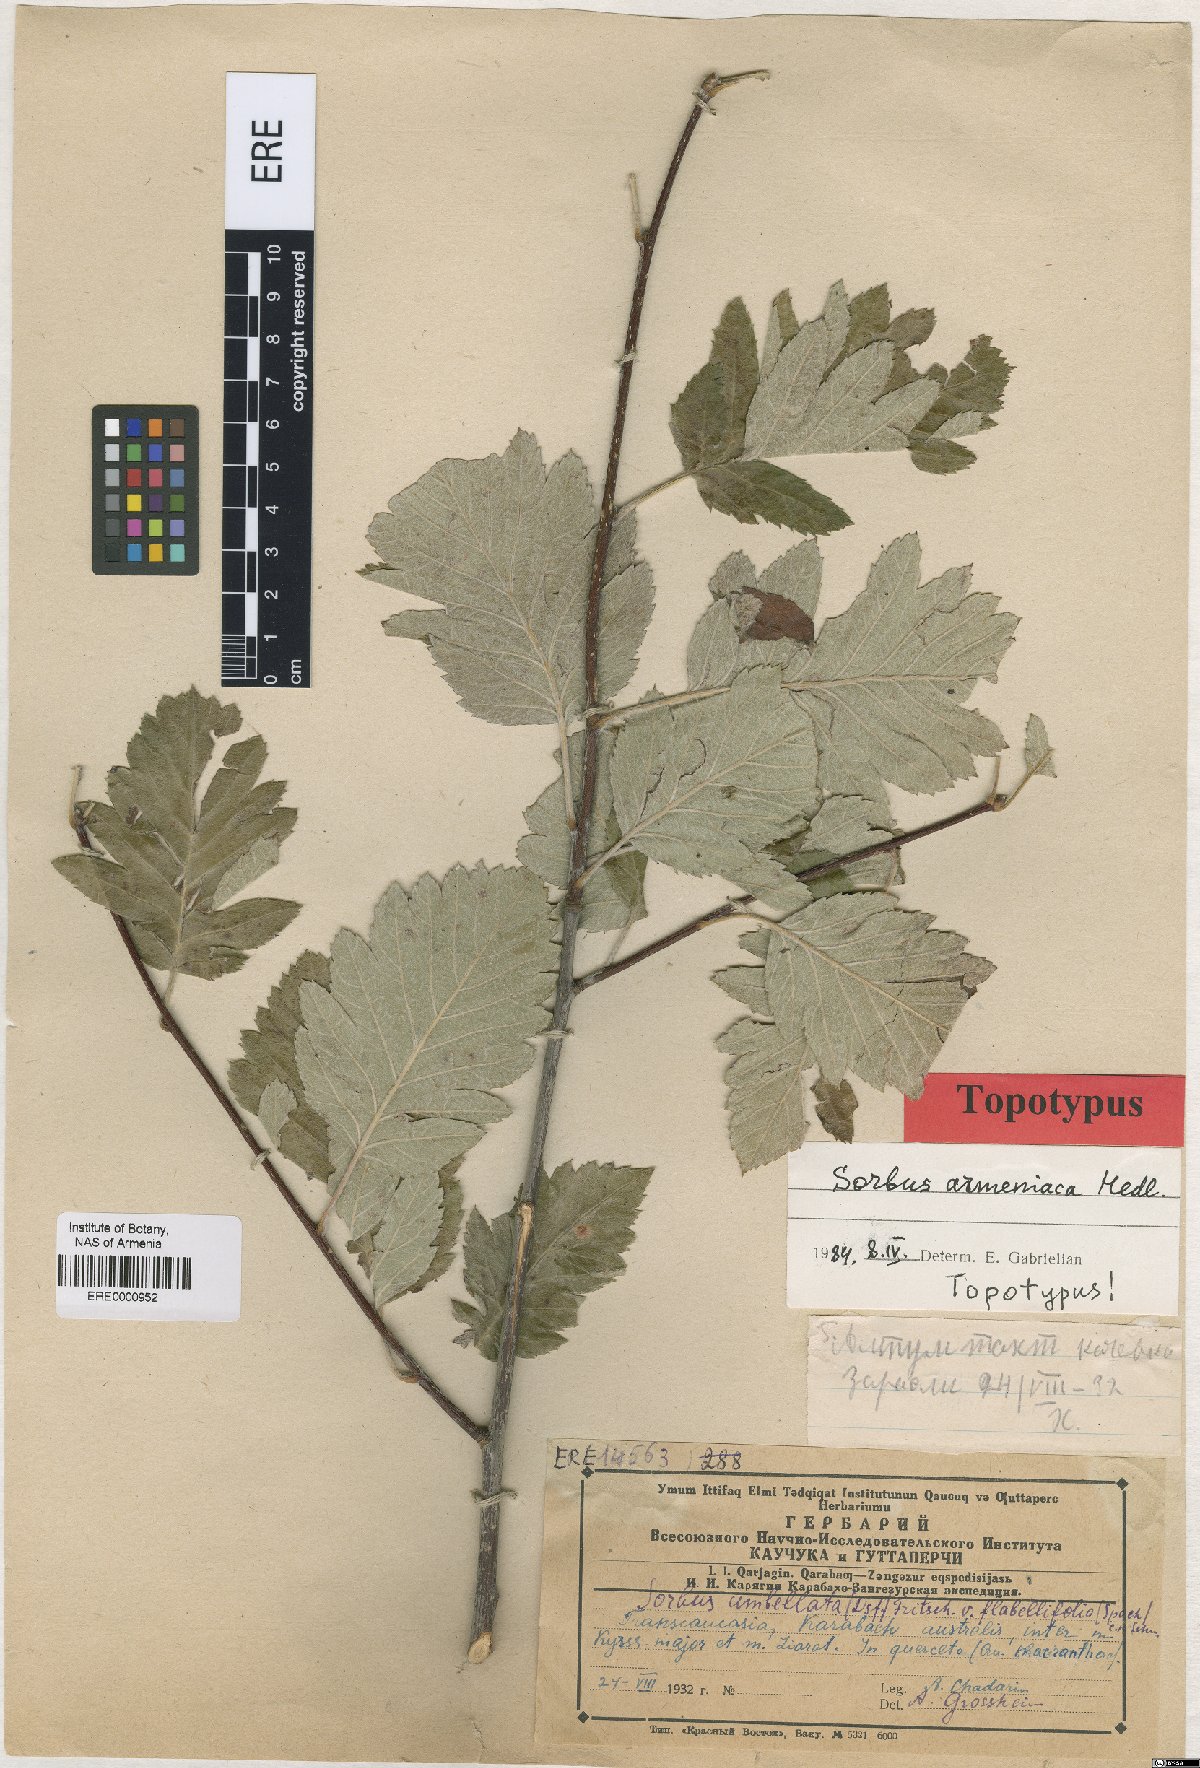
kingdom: Plantae
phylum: Tracheophyta
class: Magnoliopsida
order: Rosales
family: Rosaceae
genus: Hedlundia
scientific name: Hedlundia armeniaca
